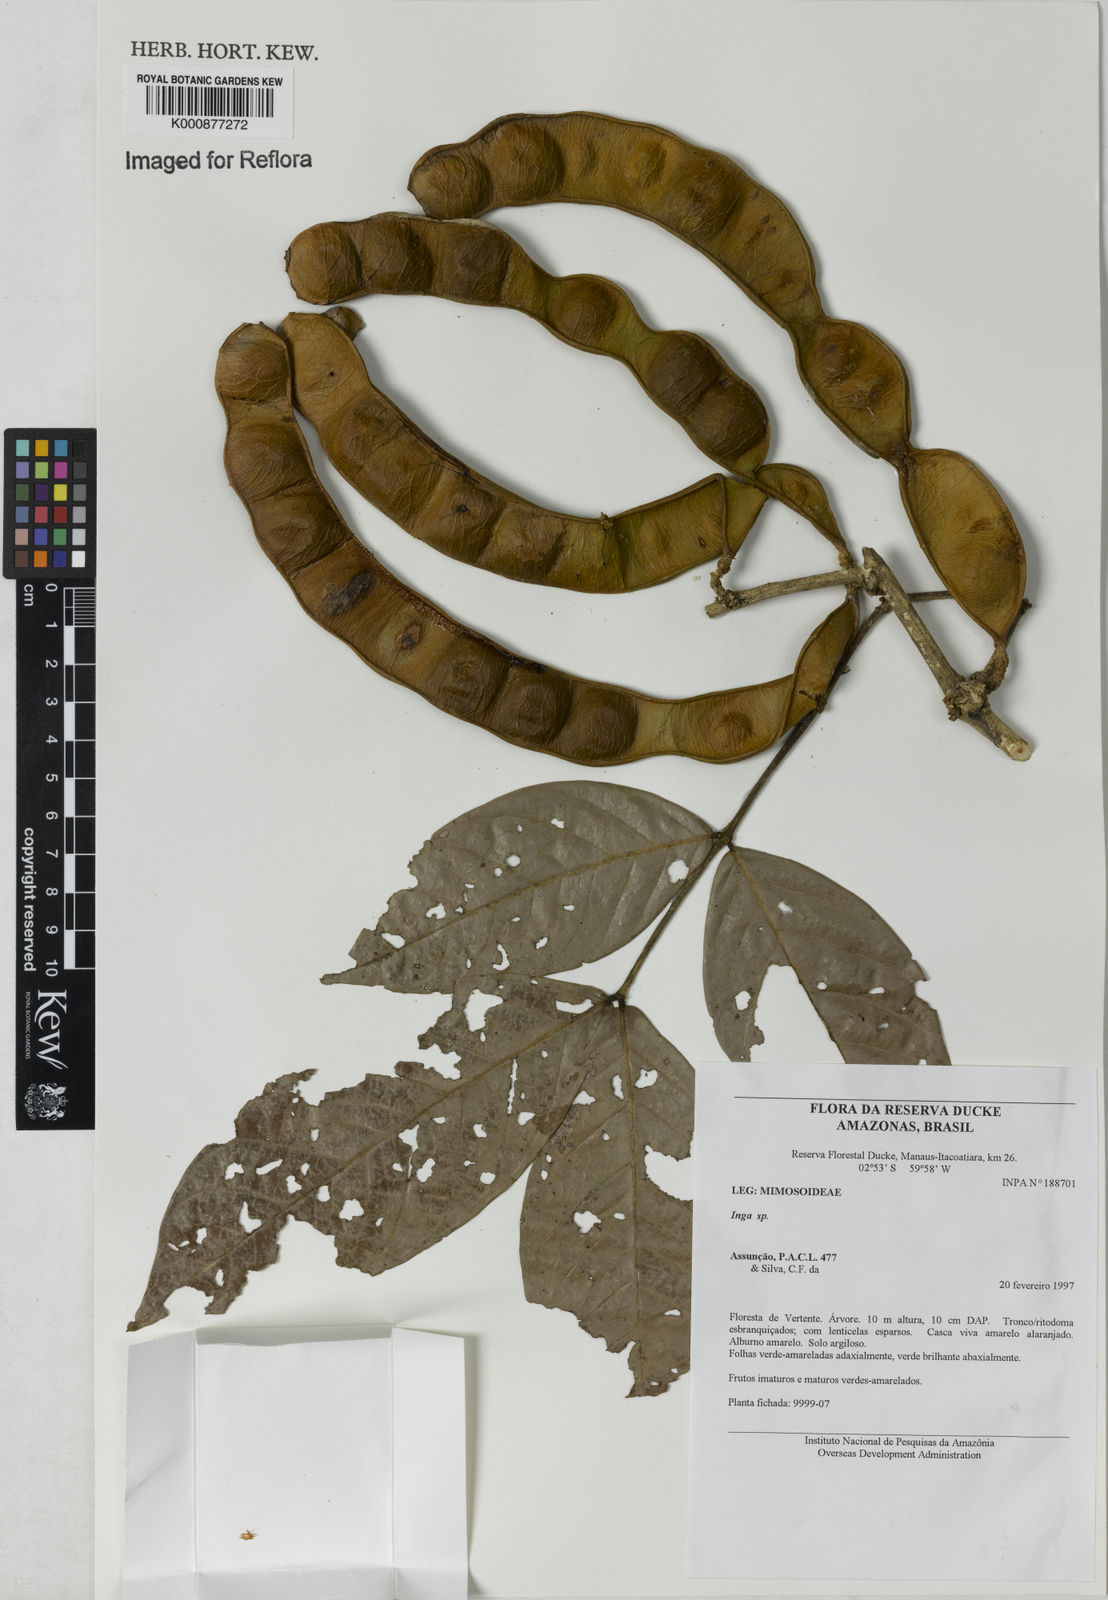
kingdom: Plantae
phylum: Tracheophyta
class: Magnoliopsida
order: Fabales
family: Fabaceae
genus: Inga
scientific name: Inga
